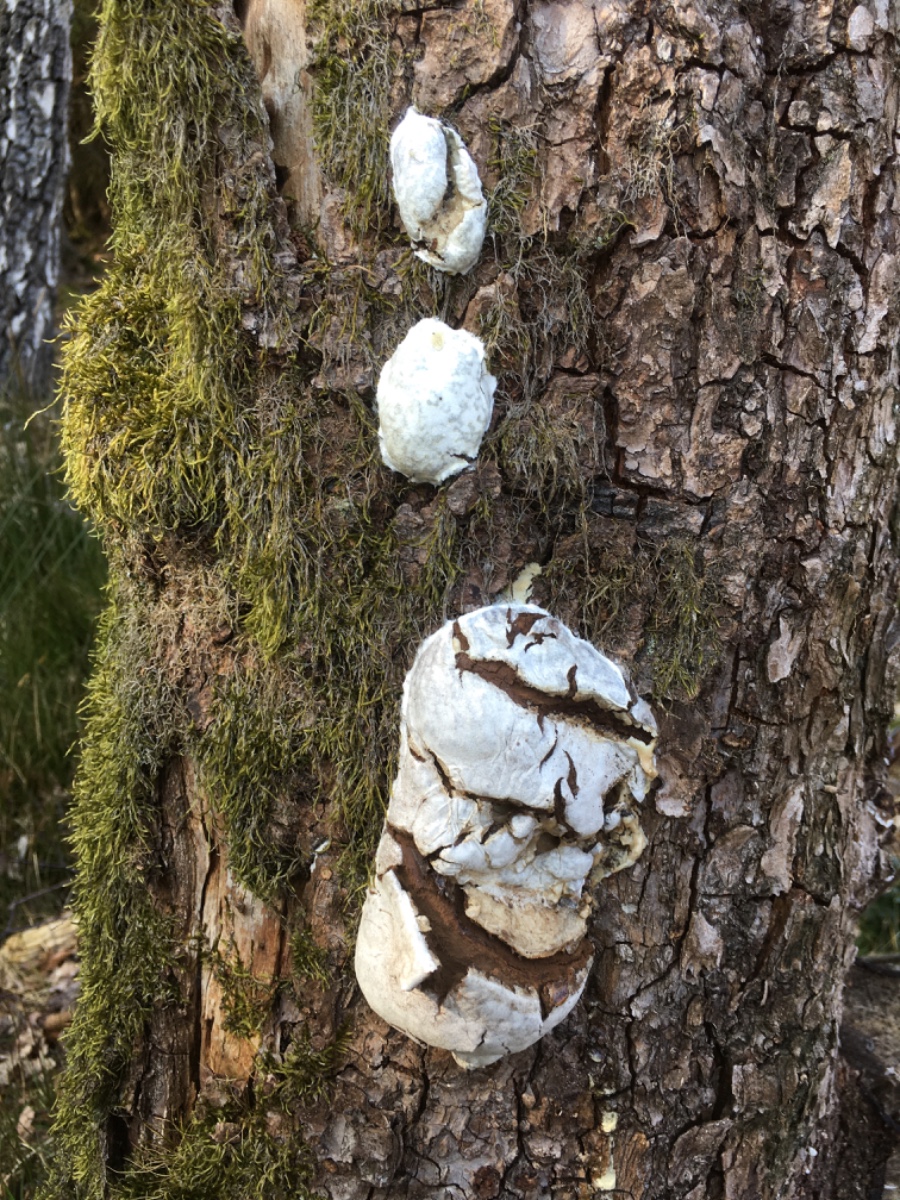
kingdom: Protozoa
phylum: Mycetozoa
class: Myxomycetes
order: Cribrariales
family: Tubiferaceae
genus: Reticularia
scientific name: Reticularia lycoperdon
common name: skinnende støvpude
